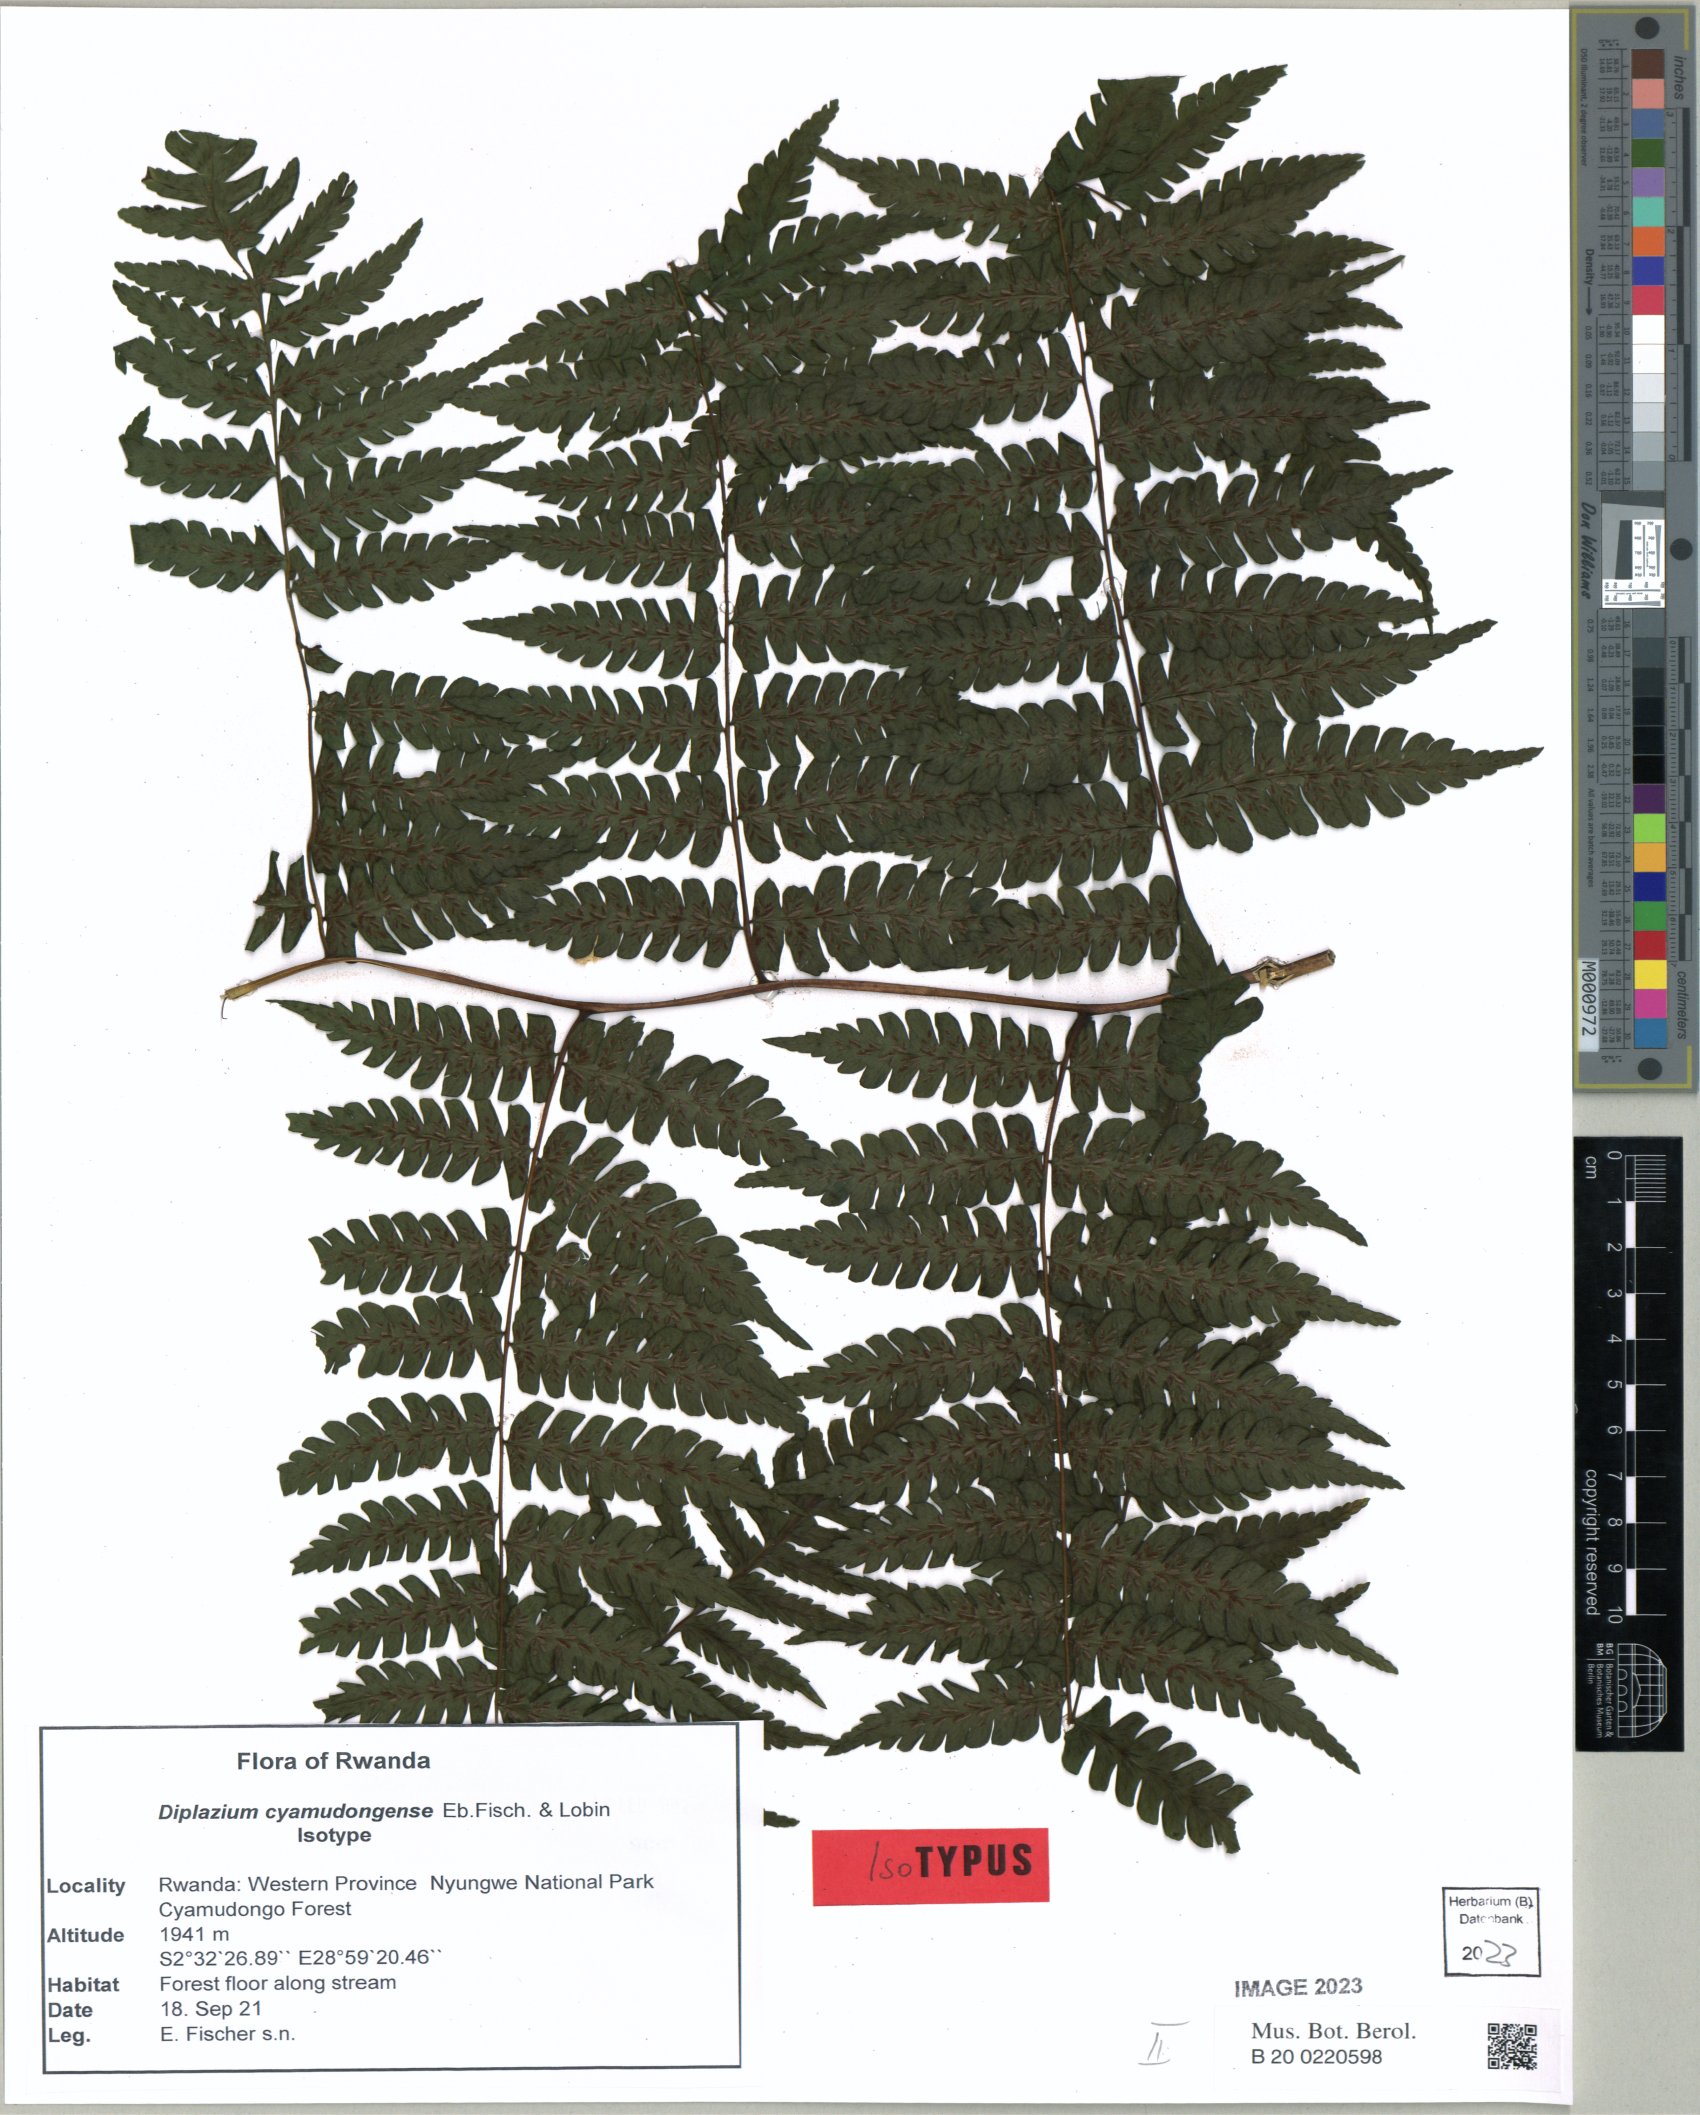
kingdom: Plantae
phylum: Tracheophyta
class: Polypodiopsida
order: Polypodiales
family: Athyriaceae
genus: Diplazium
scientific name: Diplazium cyamudongoense
